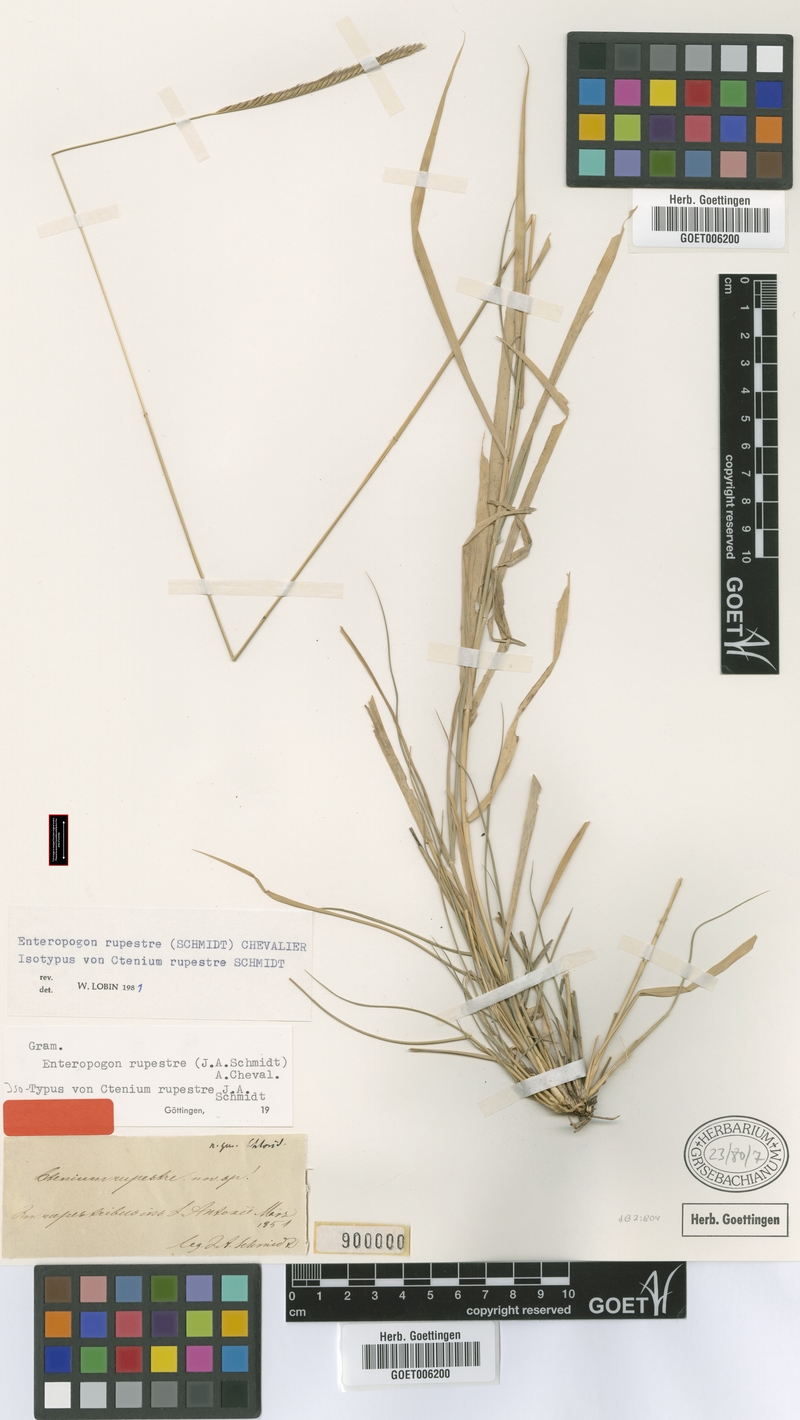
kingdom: Plantae
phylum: Tracheophyta
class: Liliopsida
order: Poales
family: Poaceae
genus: Enteropogon
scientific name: Enteropogon rupestris
